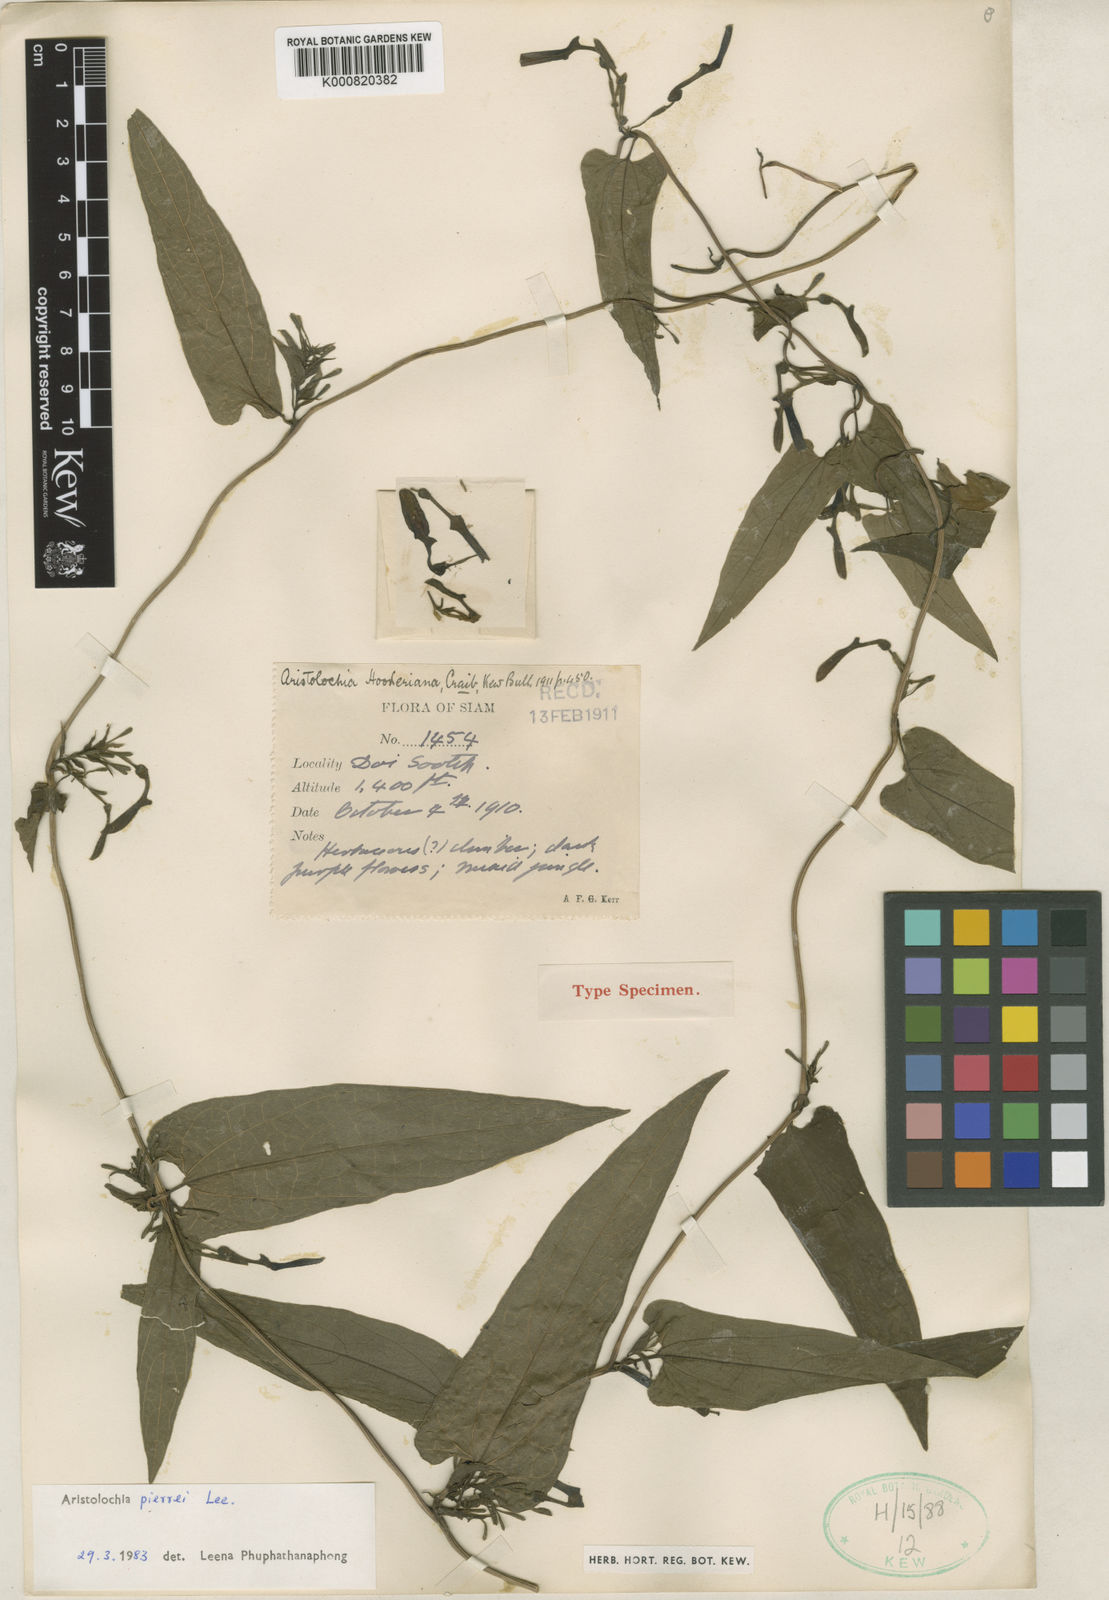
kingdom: Plantae
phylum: Tracheophyta
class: Magnoliopsida
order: Piperales
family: Aristolochiaceae
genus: Aristolochia
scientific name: Aristolochia pierrei
